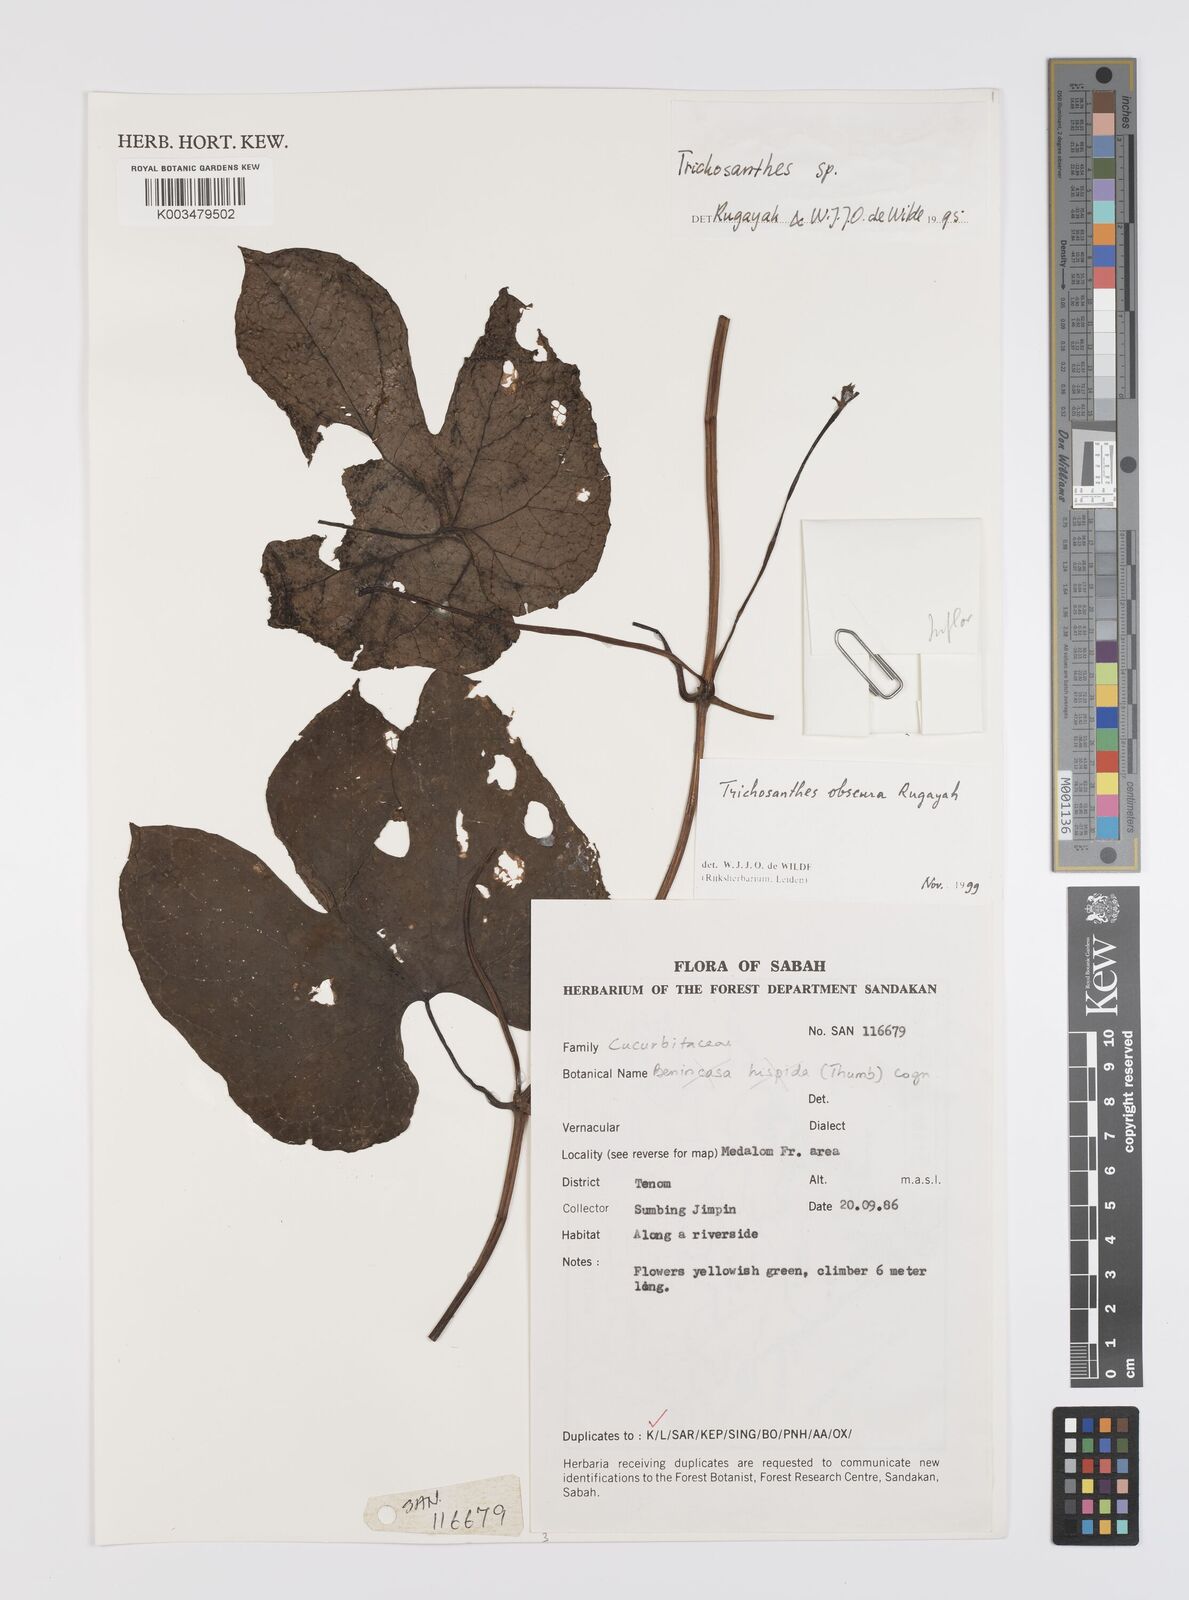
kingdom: Plantae
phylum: Tracheophyta
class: Magnoliopsida
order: Cucurbitales
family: Cucurbitaceae
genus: Trichosanthes
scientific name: Trichosanthes obscura
